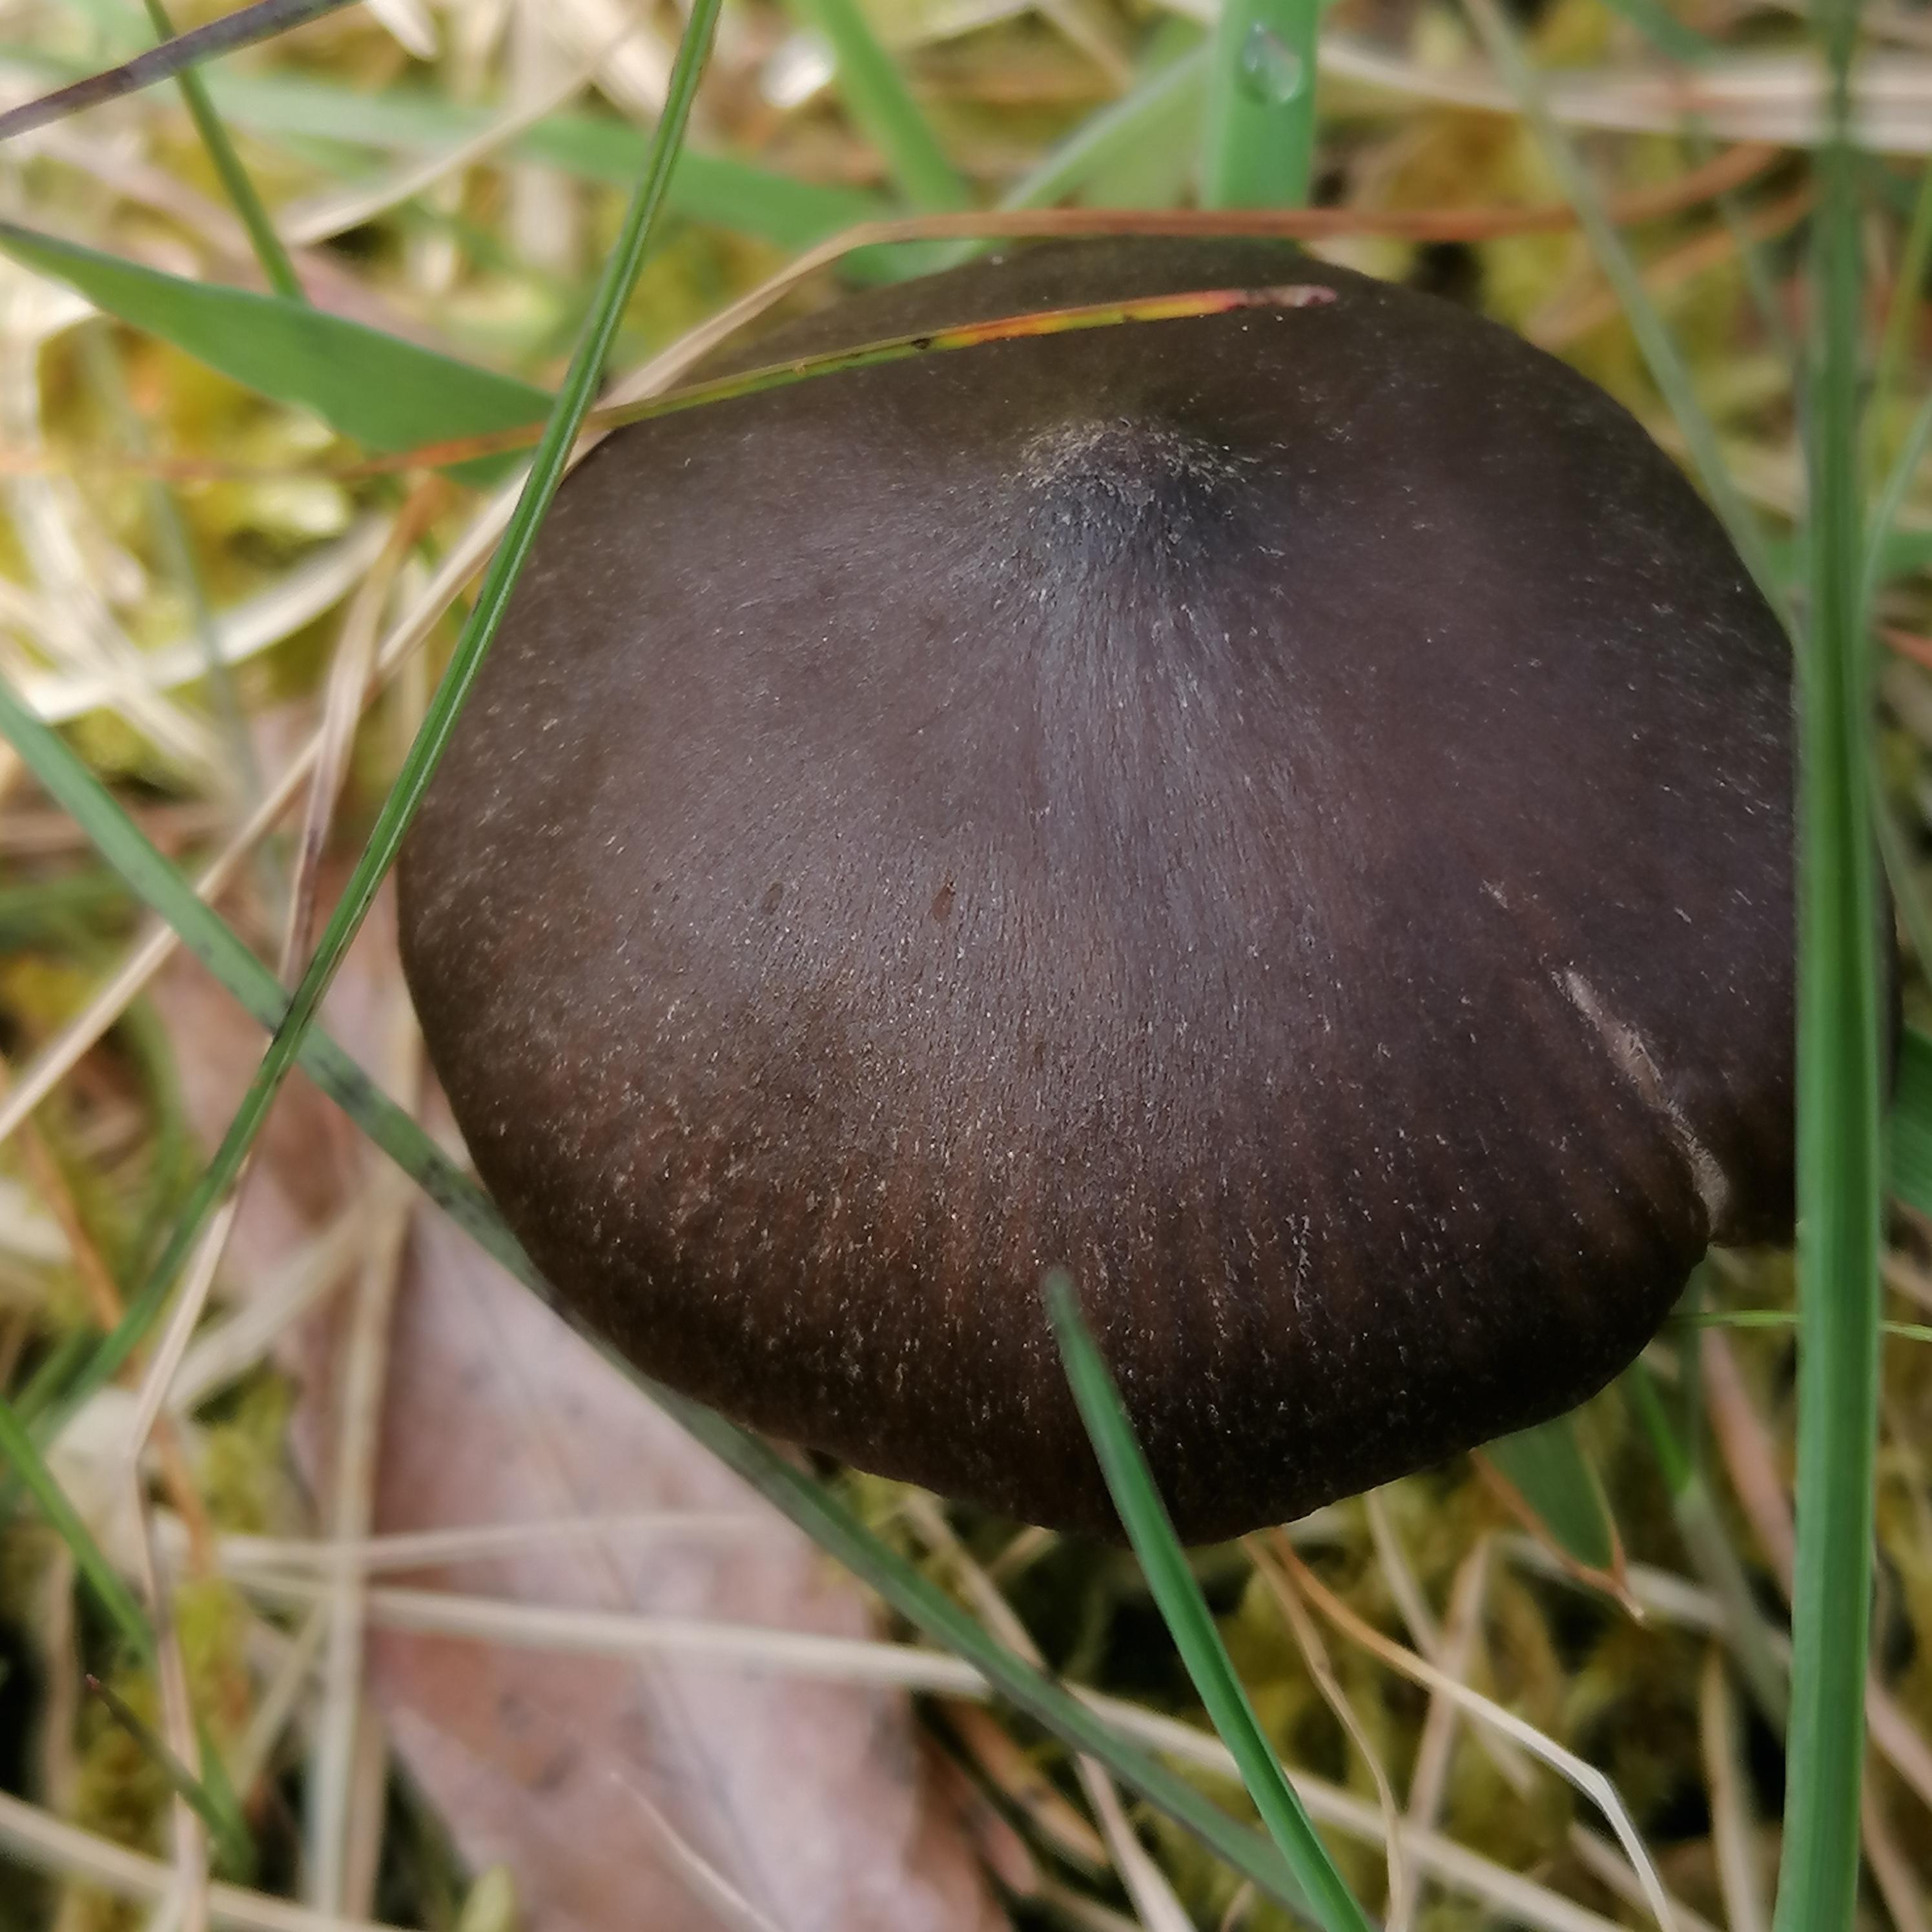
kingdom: Fungi
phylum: Basidiomycota
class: Agaricomycetes
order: Agaricales
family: Entolomataceae
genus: Entoloma
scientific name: Entoloma vernum
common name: vår-rødblad
